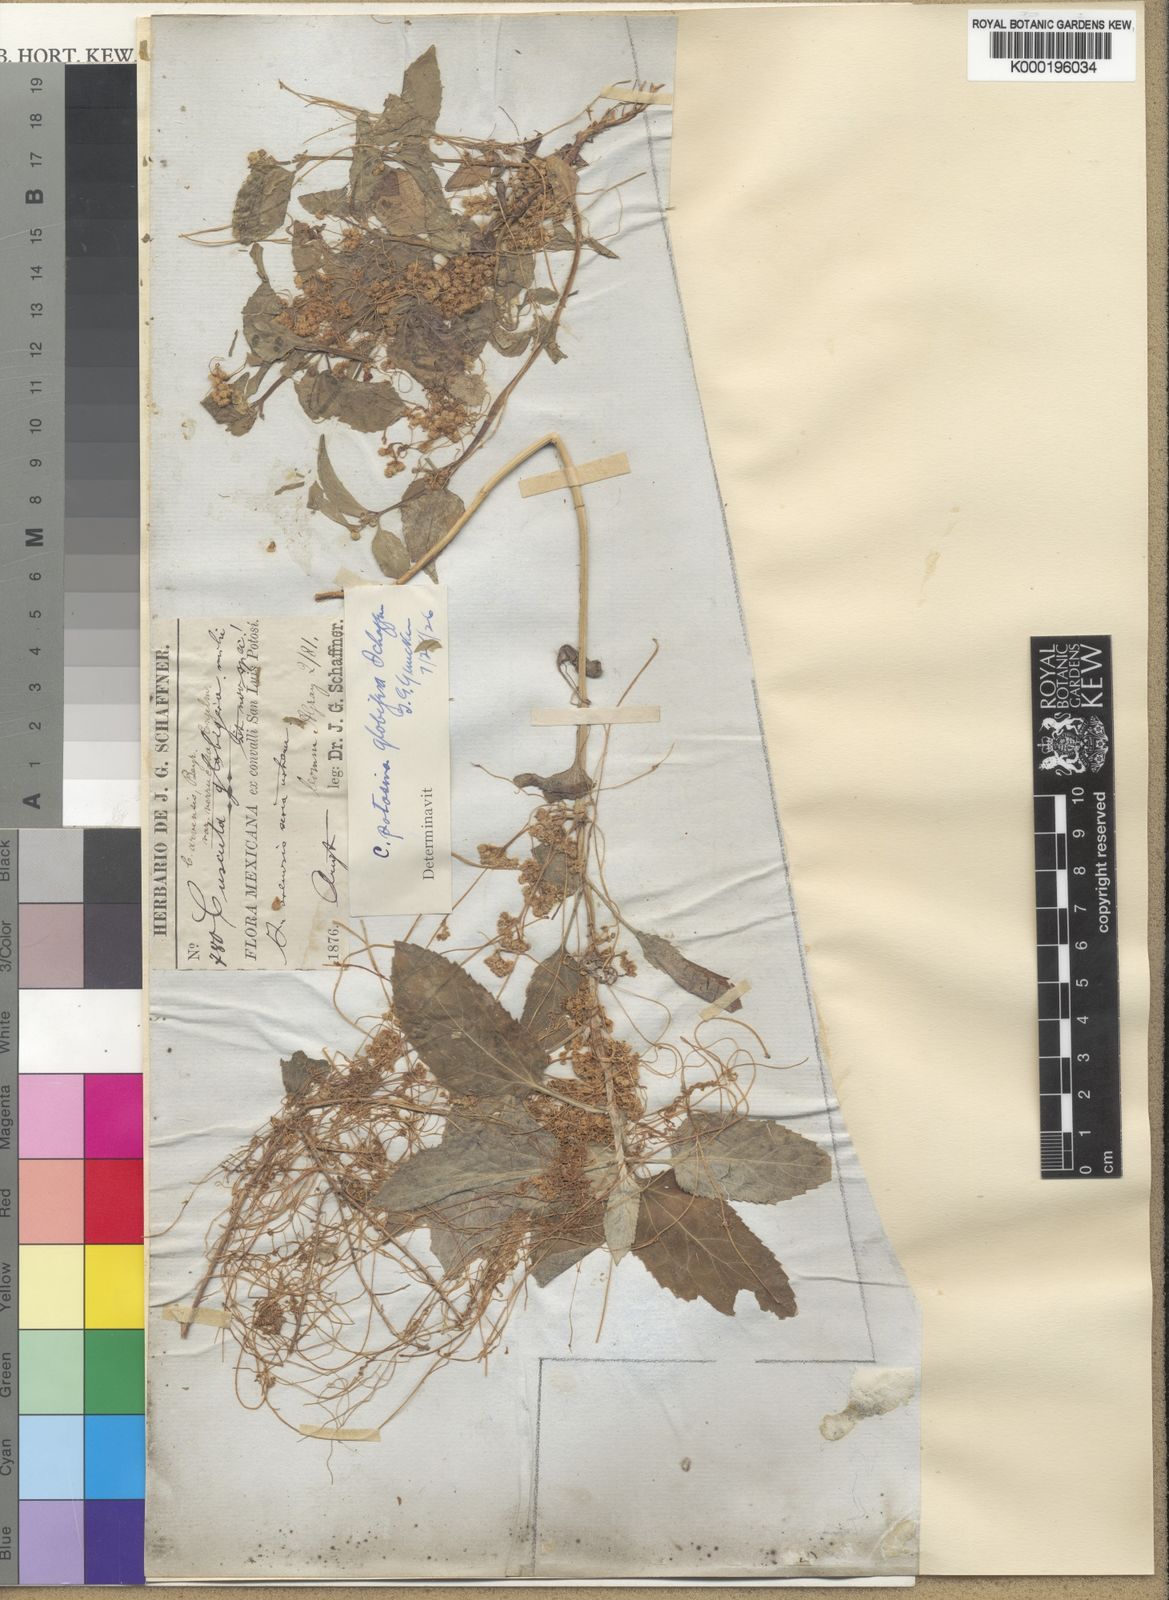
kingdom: Plantae
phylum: Tracheophyta
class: Magnoliopsida
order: Solanales
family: Convolvulaceae
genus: Cuscuta
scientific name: Cuscuta potosina
